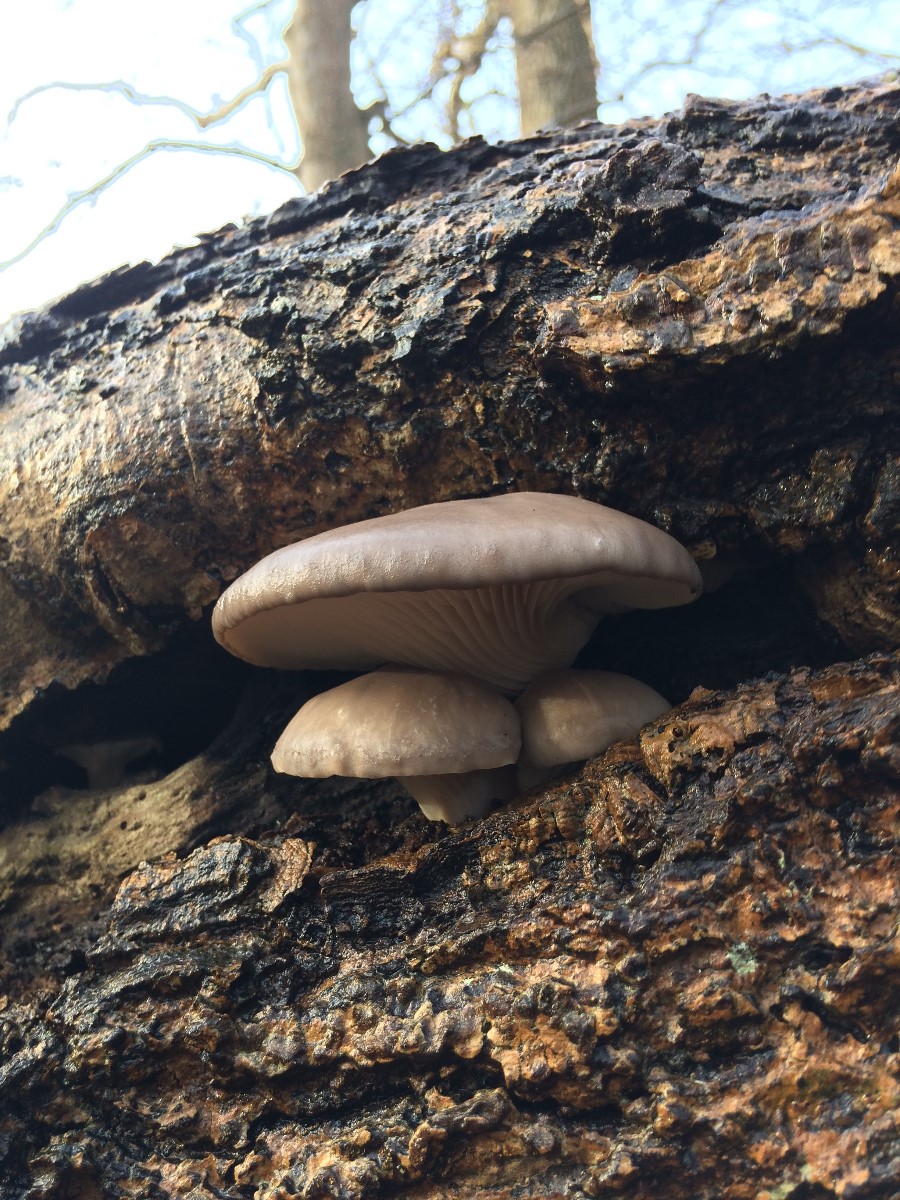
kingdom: Fungi
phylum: Basidiomycota
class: Agaricomycetes
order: Agaricales
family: Pleurotaceae
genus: Pleurotus
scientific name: Pleurotus ostreatus
